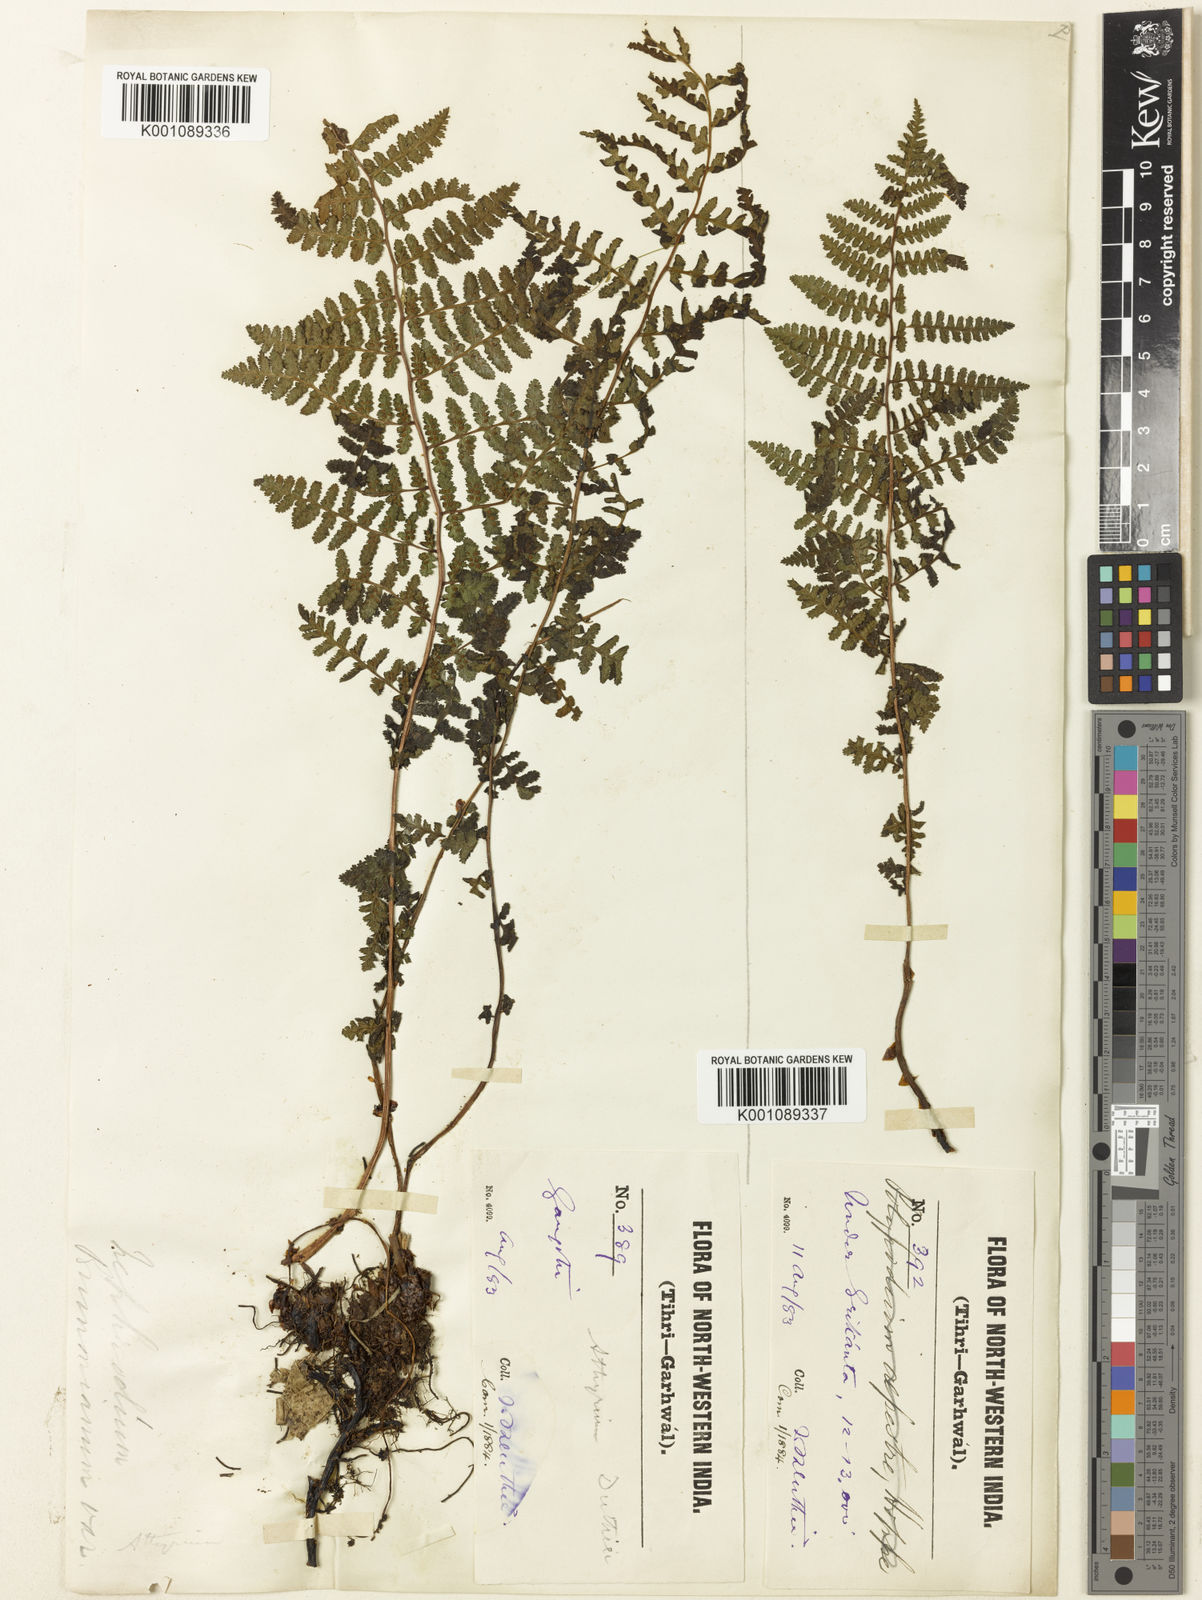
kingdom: Plantae
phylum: Tracheophyta
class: Polypodiopsida
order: Polypodiales
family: Athyriaceae
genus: Athyrium
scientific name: Athyrium davidii
